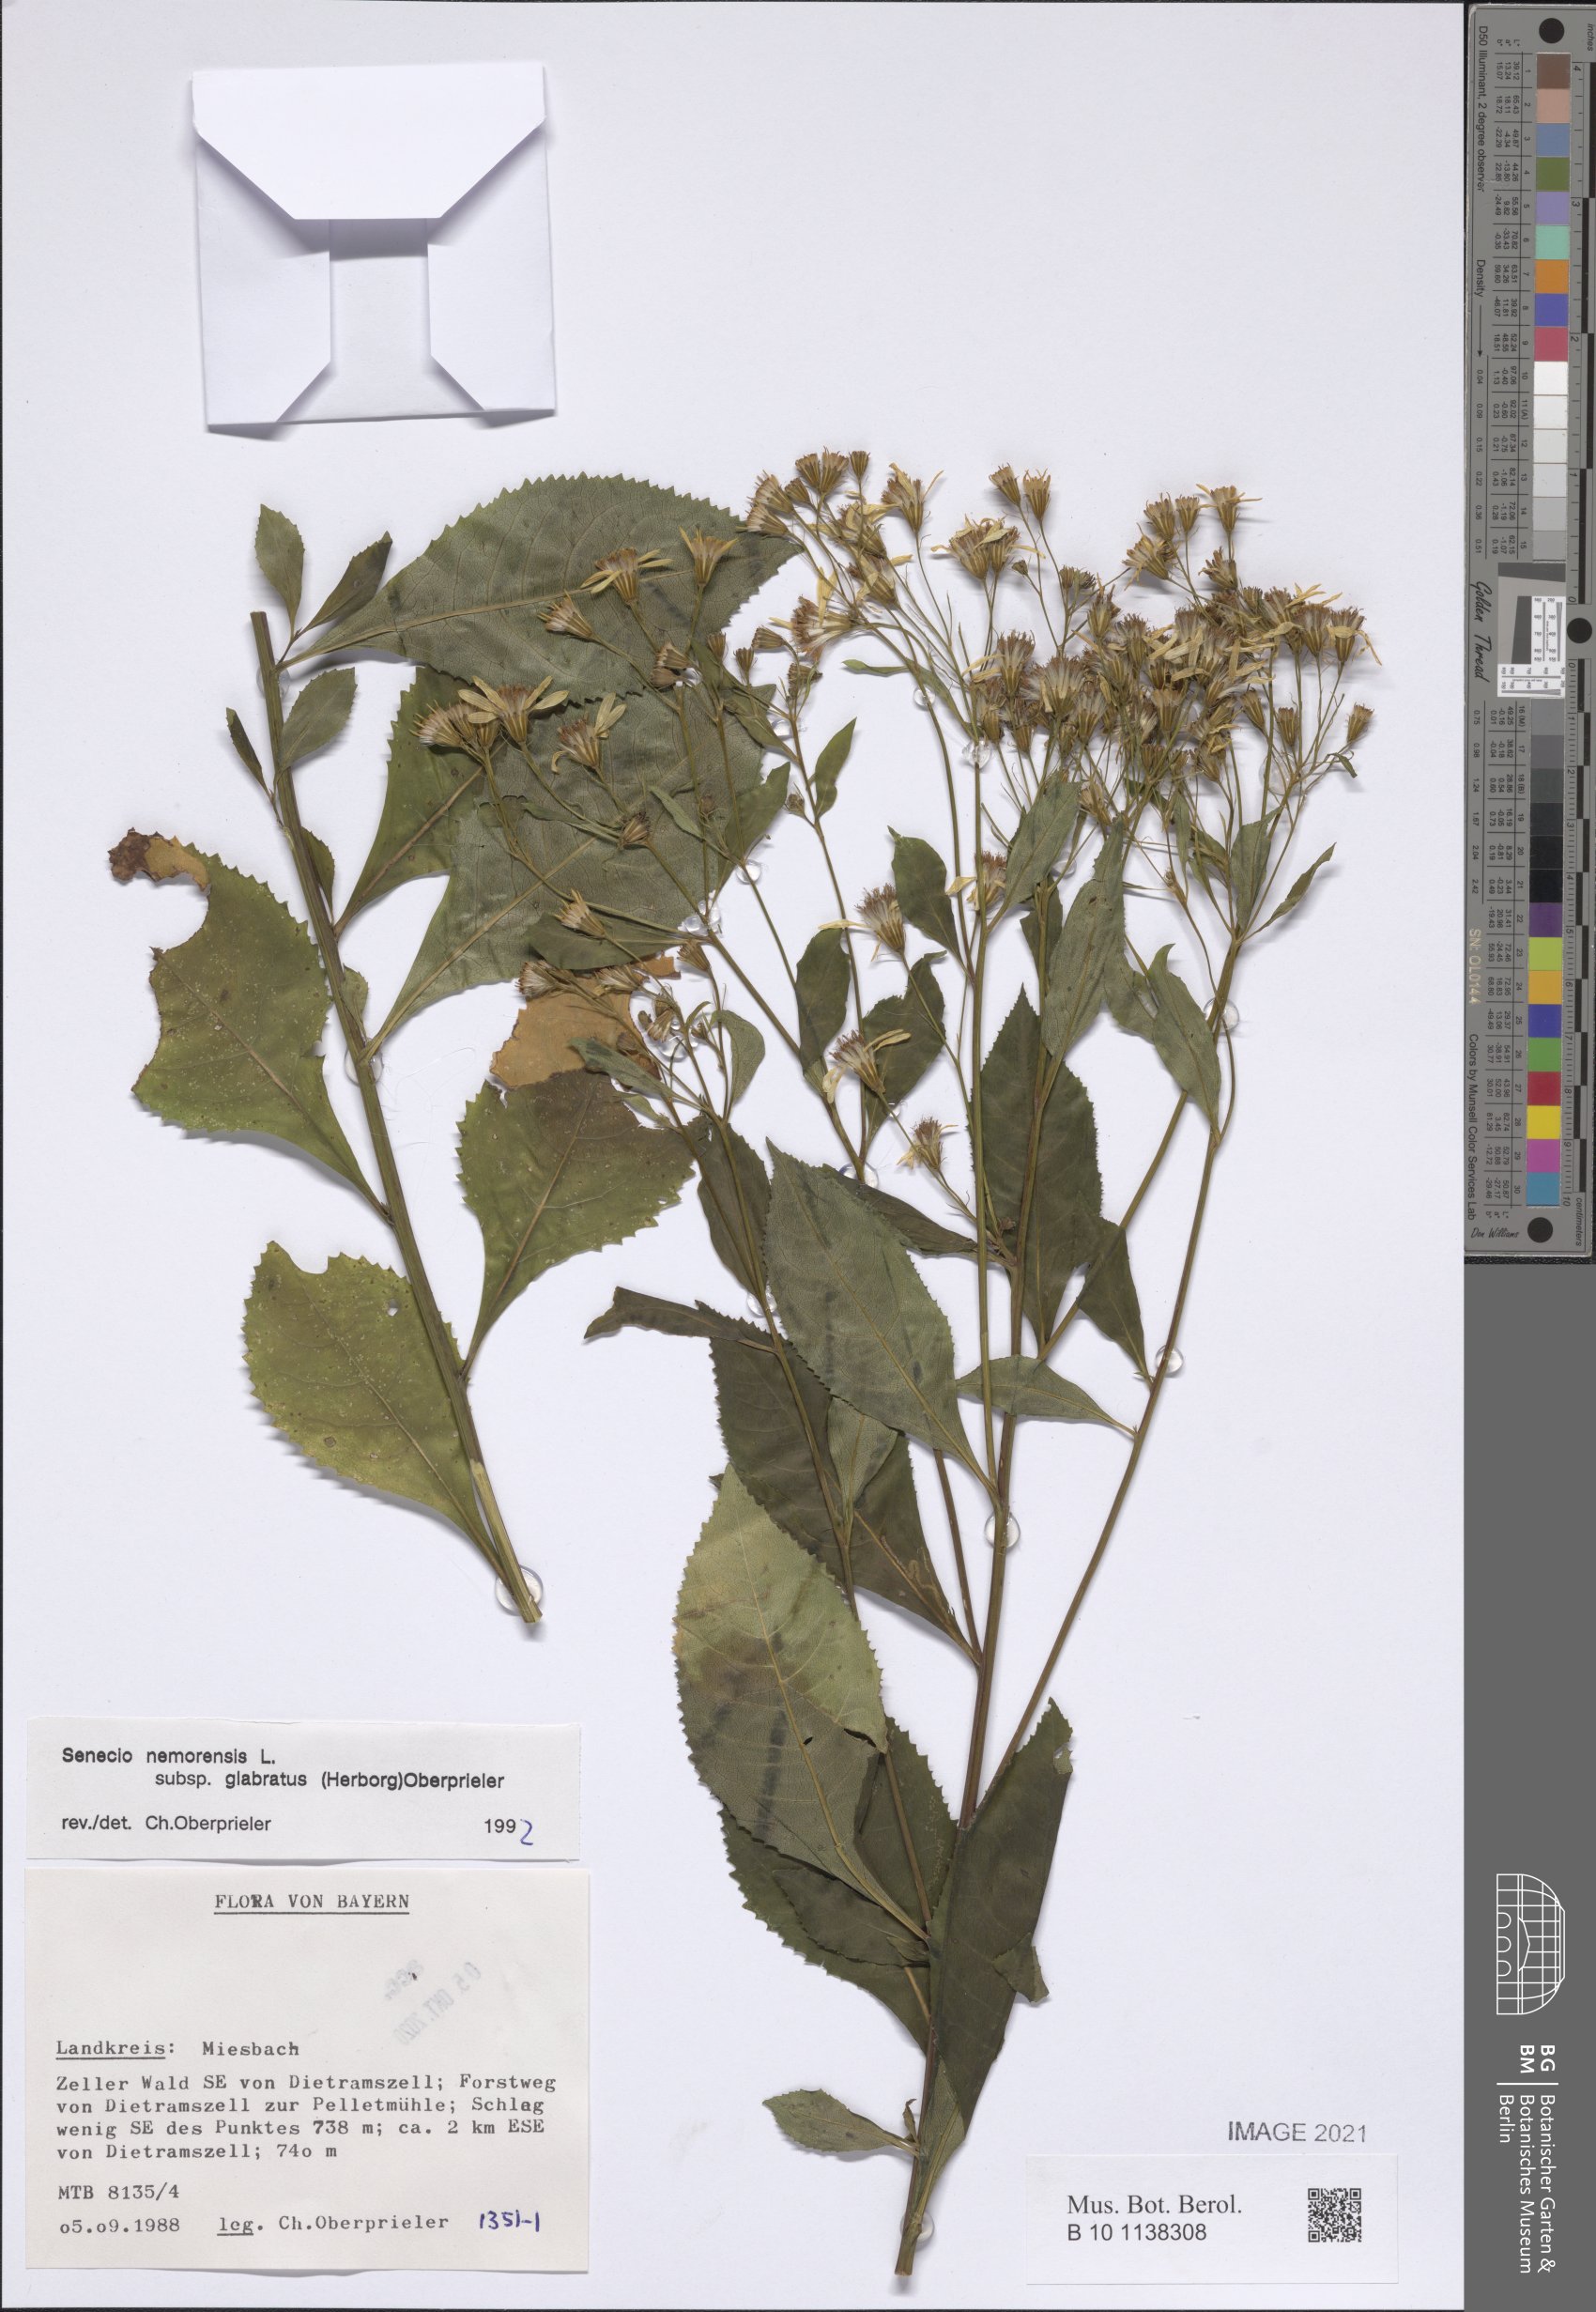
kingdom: Plantae
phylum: Tracheophyta
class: Magnoliopsida
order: Asterales
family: Asteraceae
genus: Senecio
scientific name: Senecio germanicus
